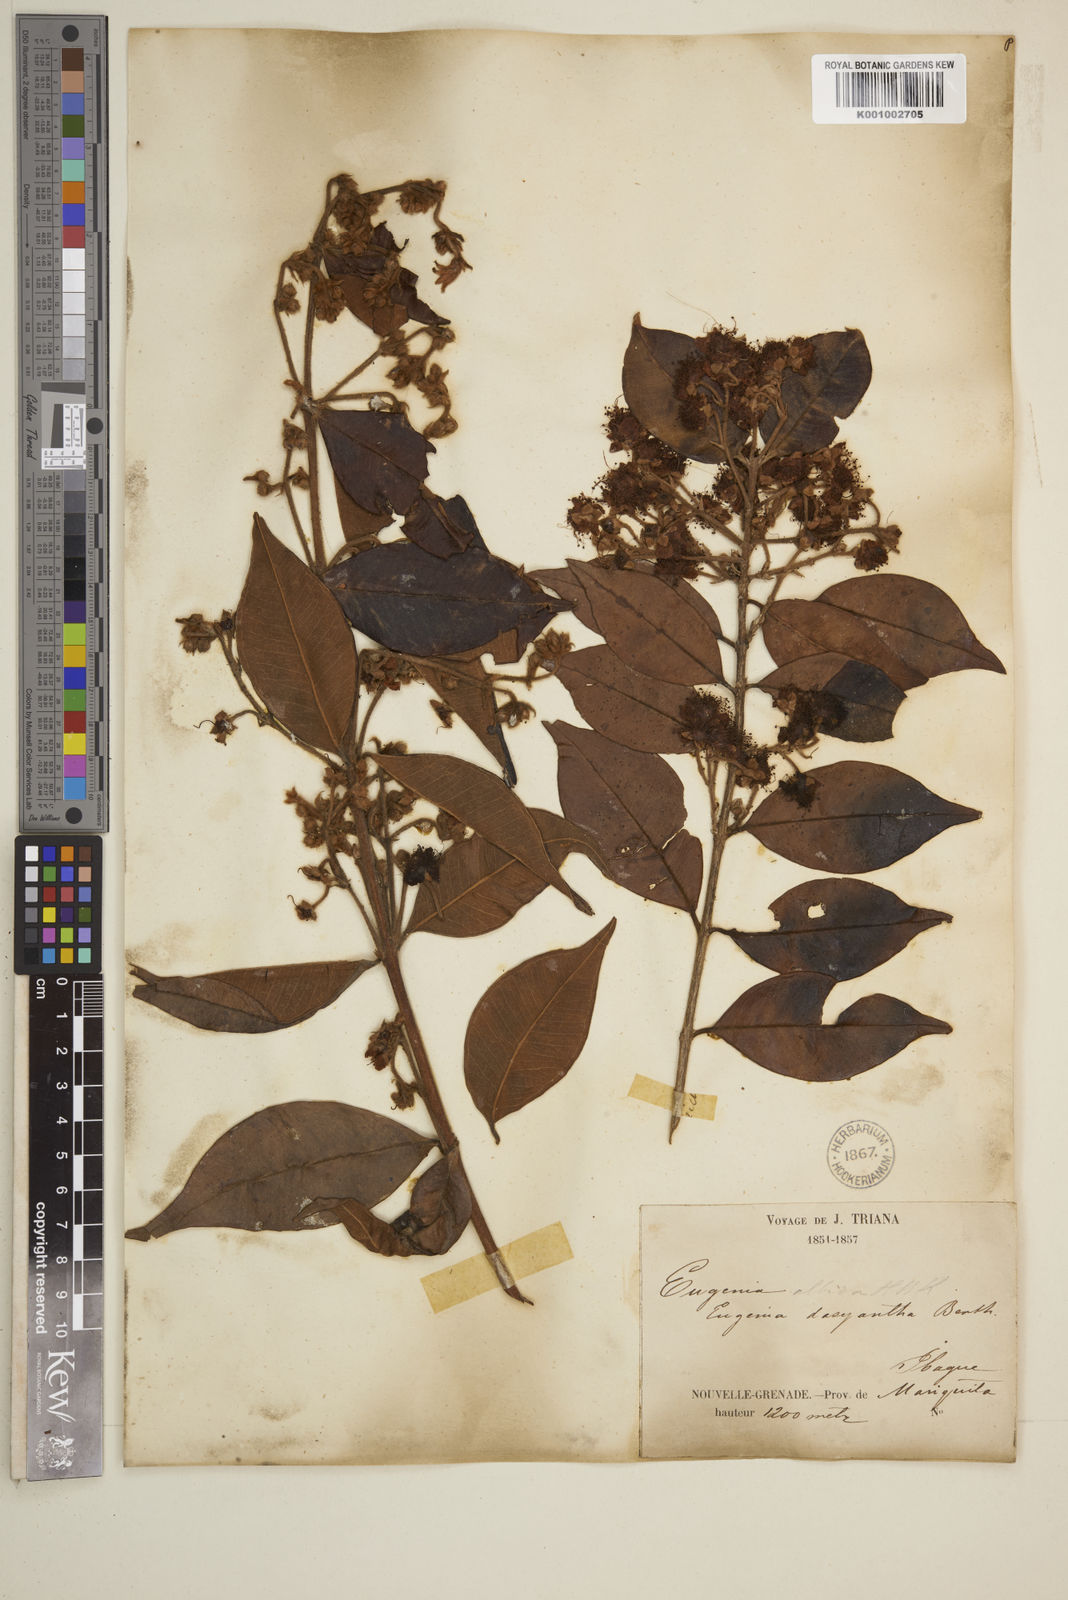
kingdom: Plantae
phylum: Tracheophyta
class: Magnoliopsida
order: Myrtales
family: Myrtaceae
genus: Eugenia
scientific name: Eugenia albida
